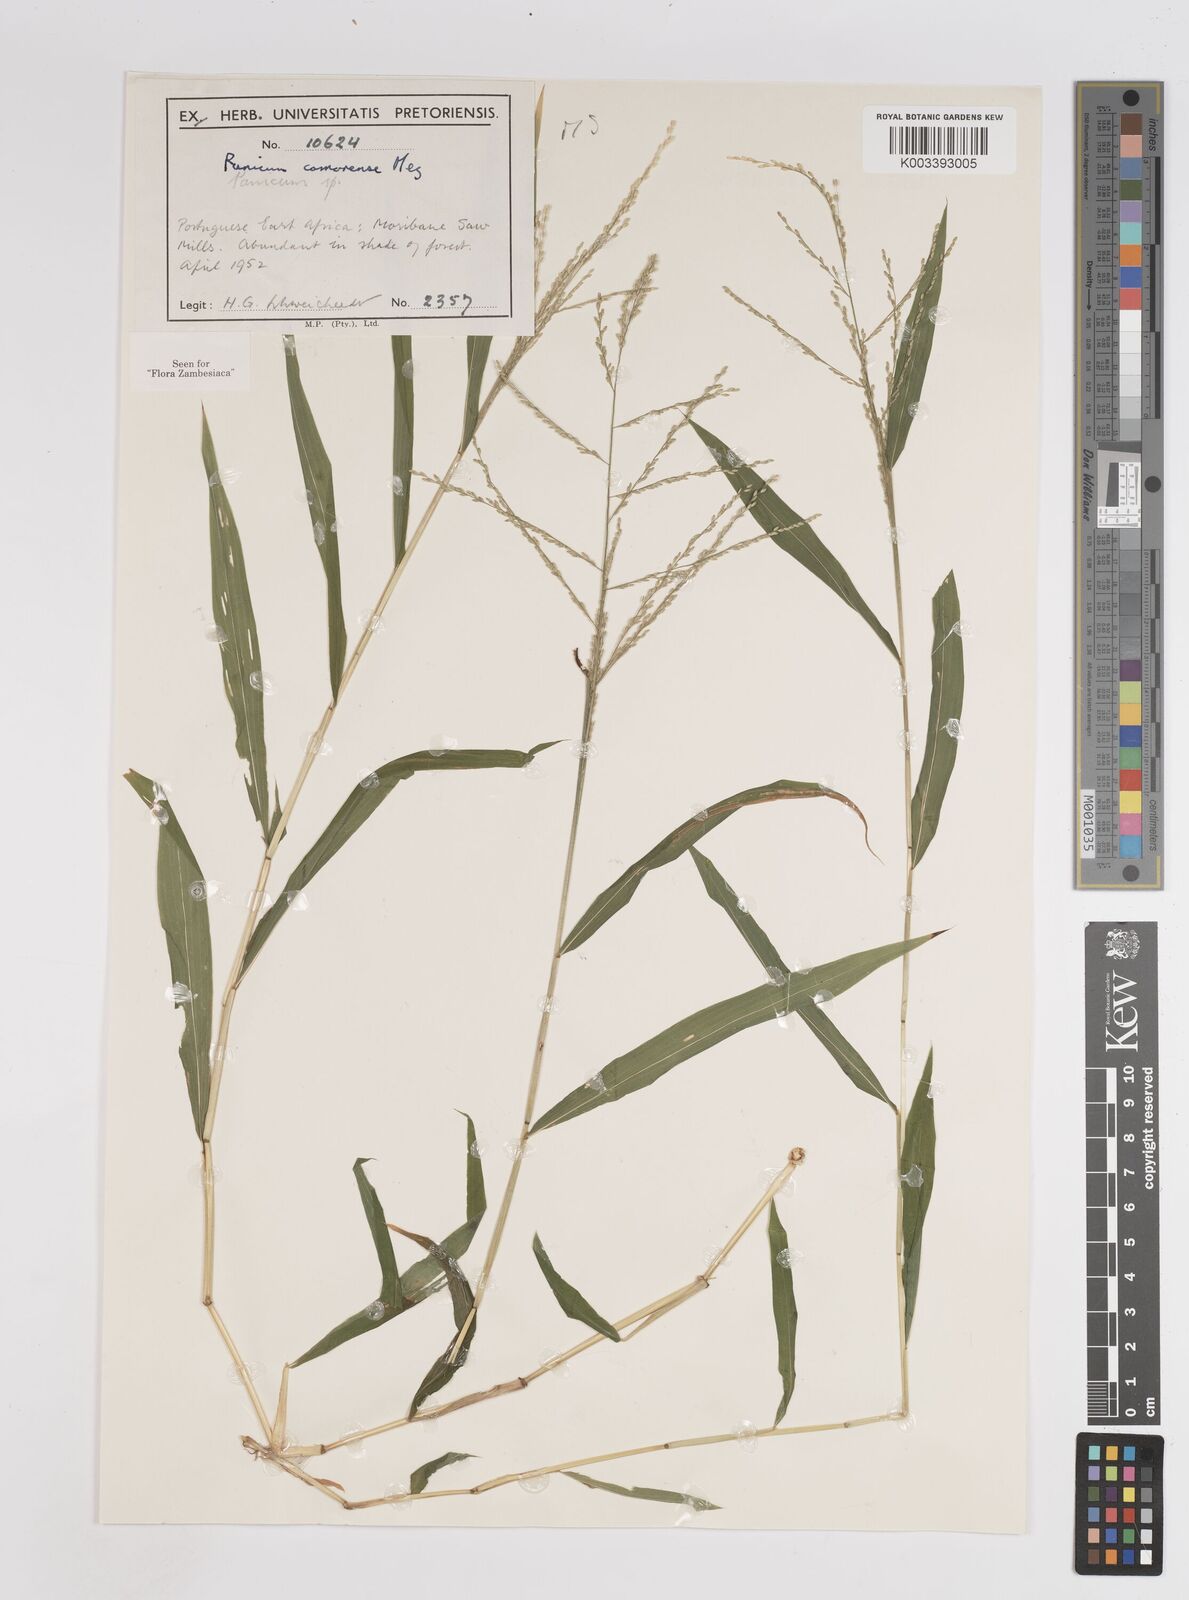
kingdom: Plantae
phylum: Tracheophyta
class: Liliopsida
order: Poales
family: Poaceae
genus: Panicum
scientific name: Panicum comorense
